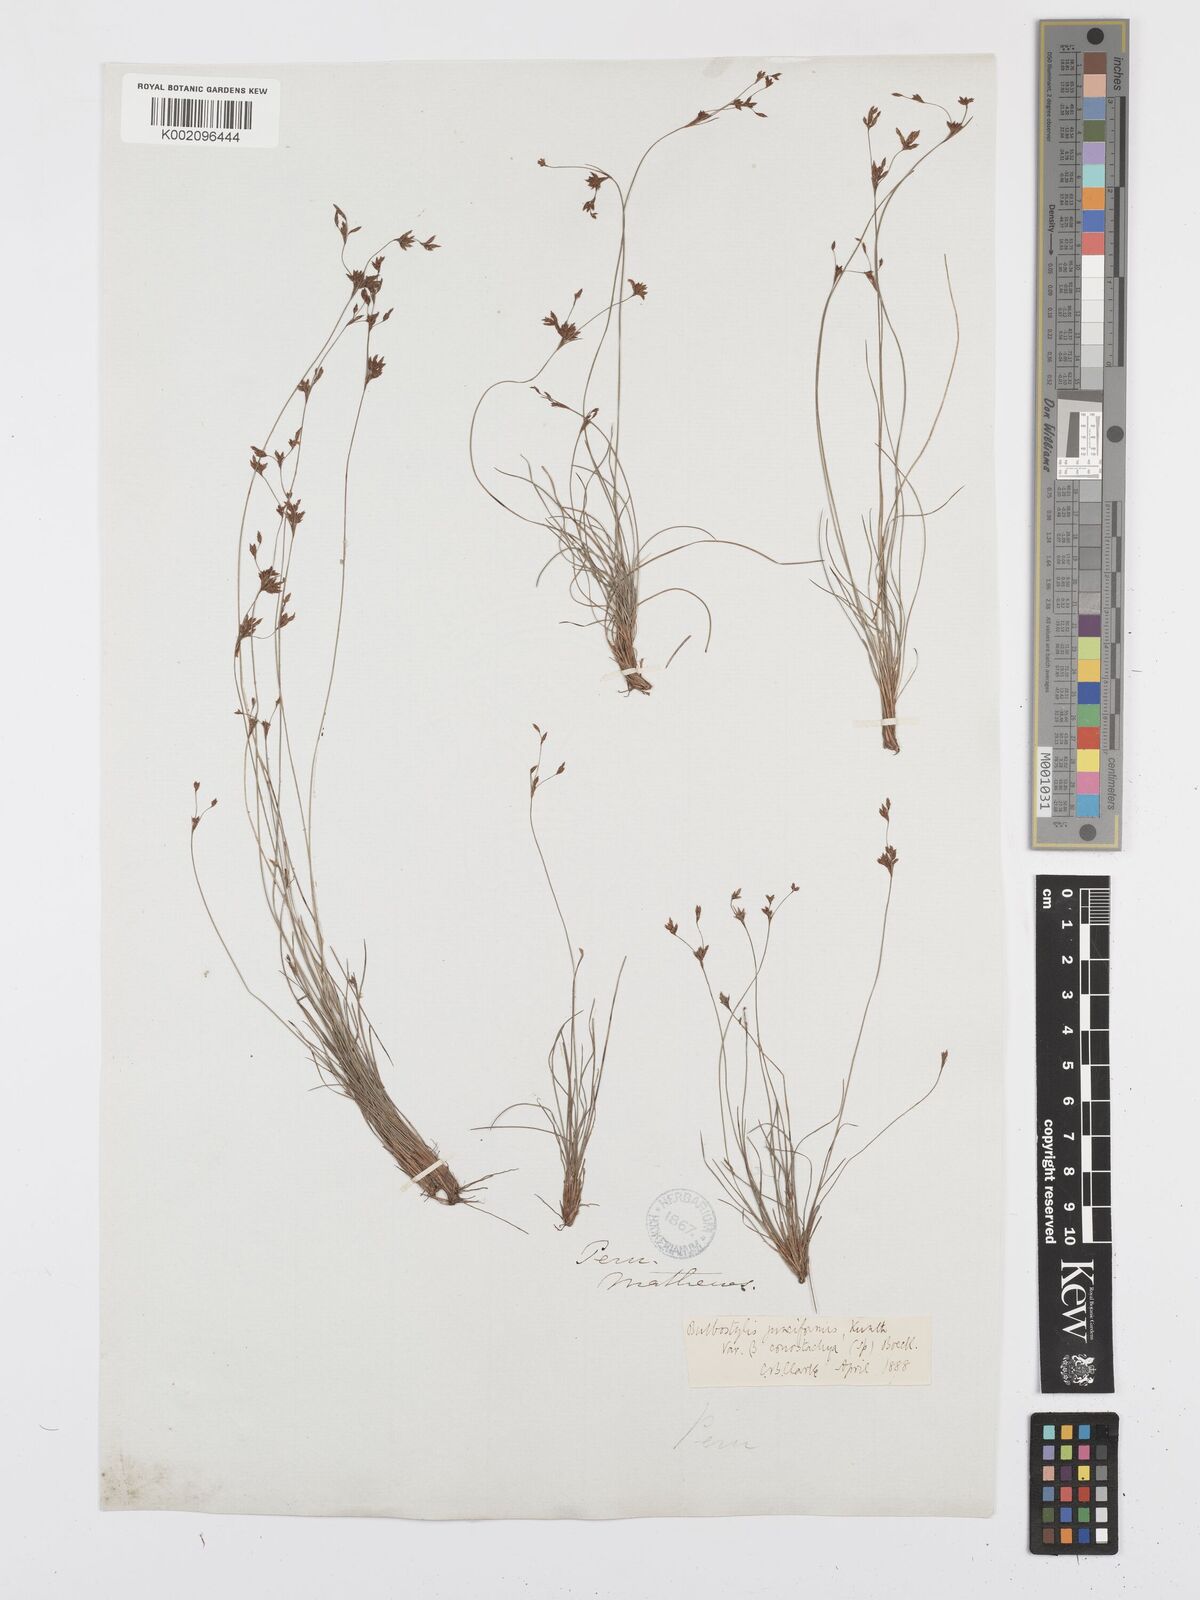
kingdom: Plantae
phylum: Tracheophyta
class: Liliopsida
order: Poales
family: Cyperaceae
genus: Bulbostylis
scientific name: Bulbostylis junciformis
